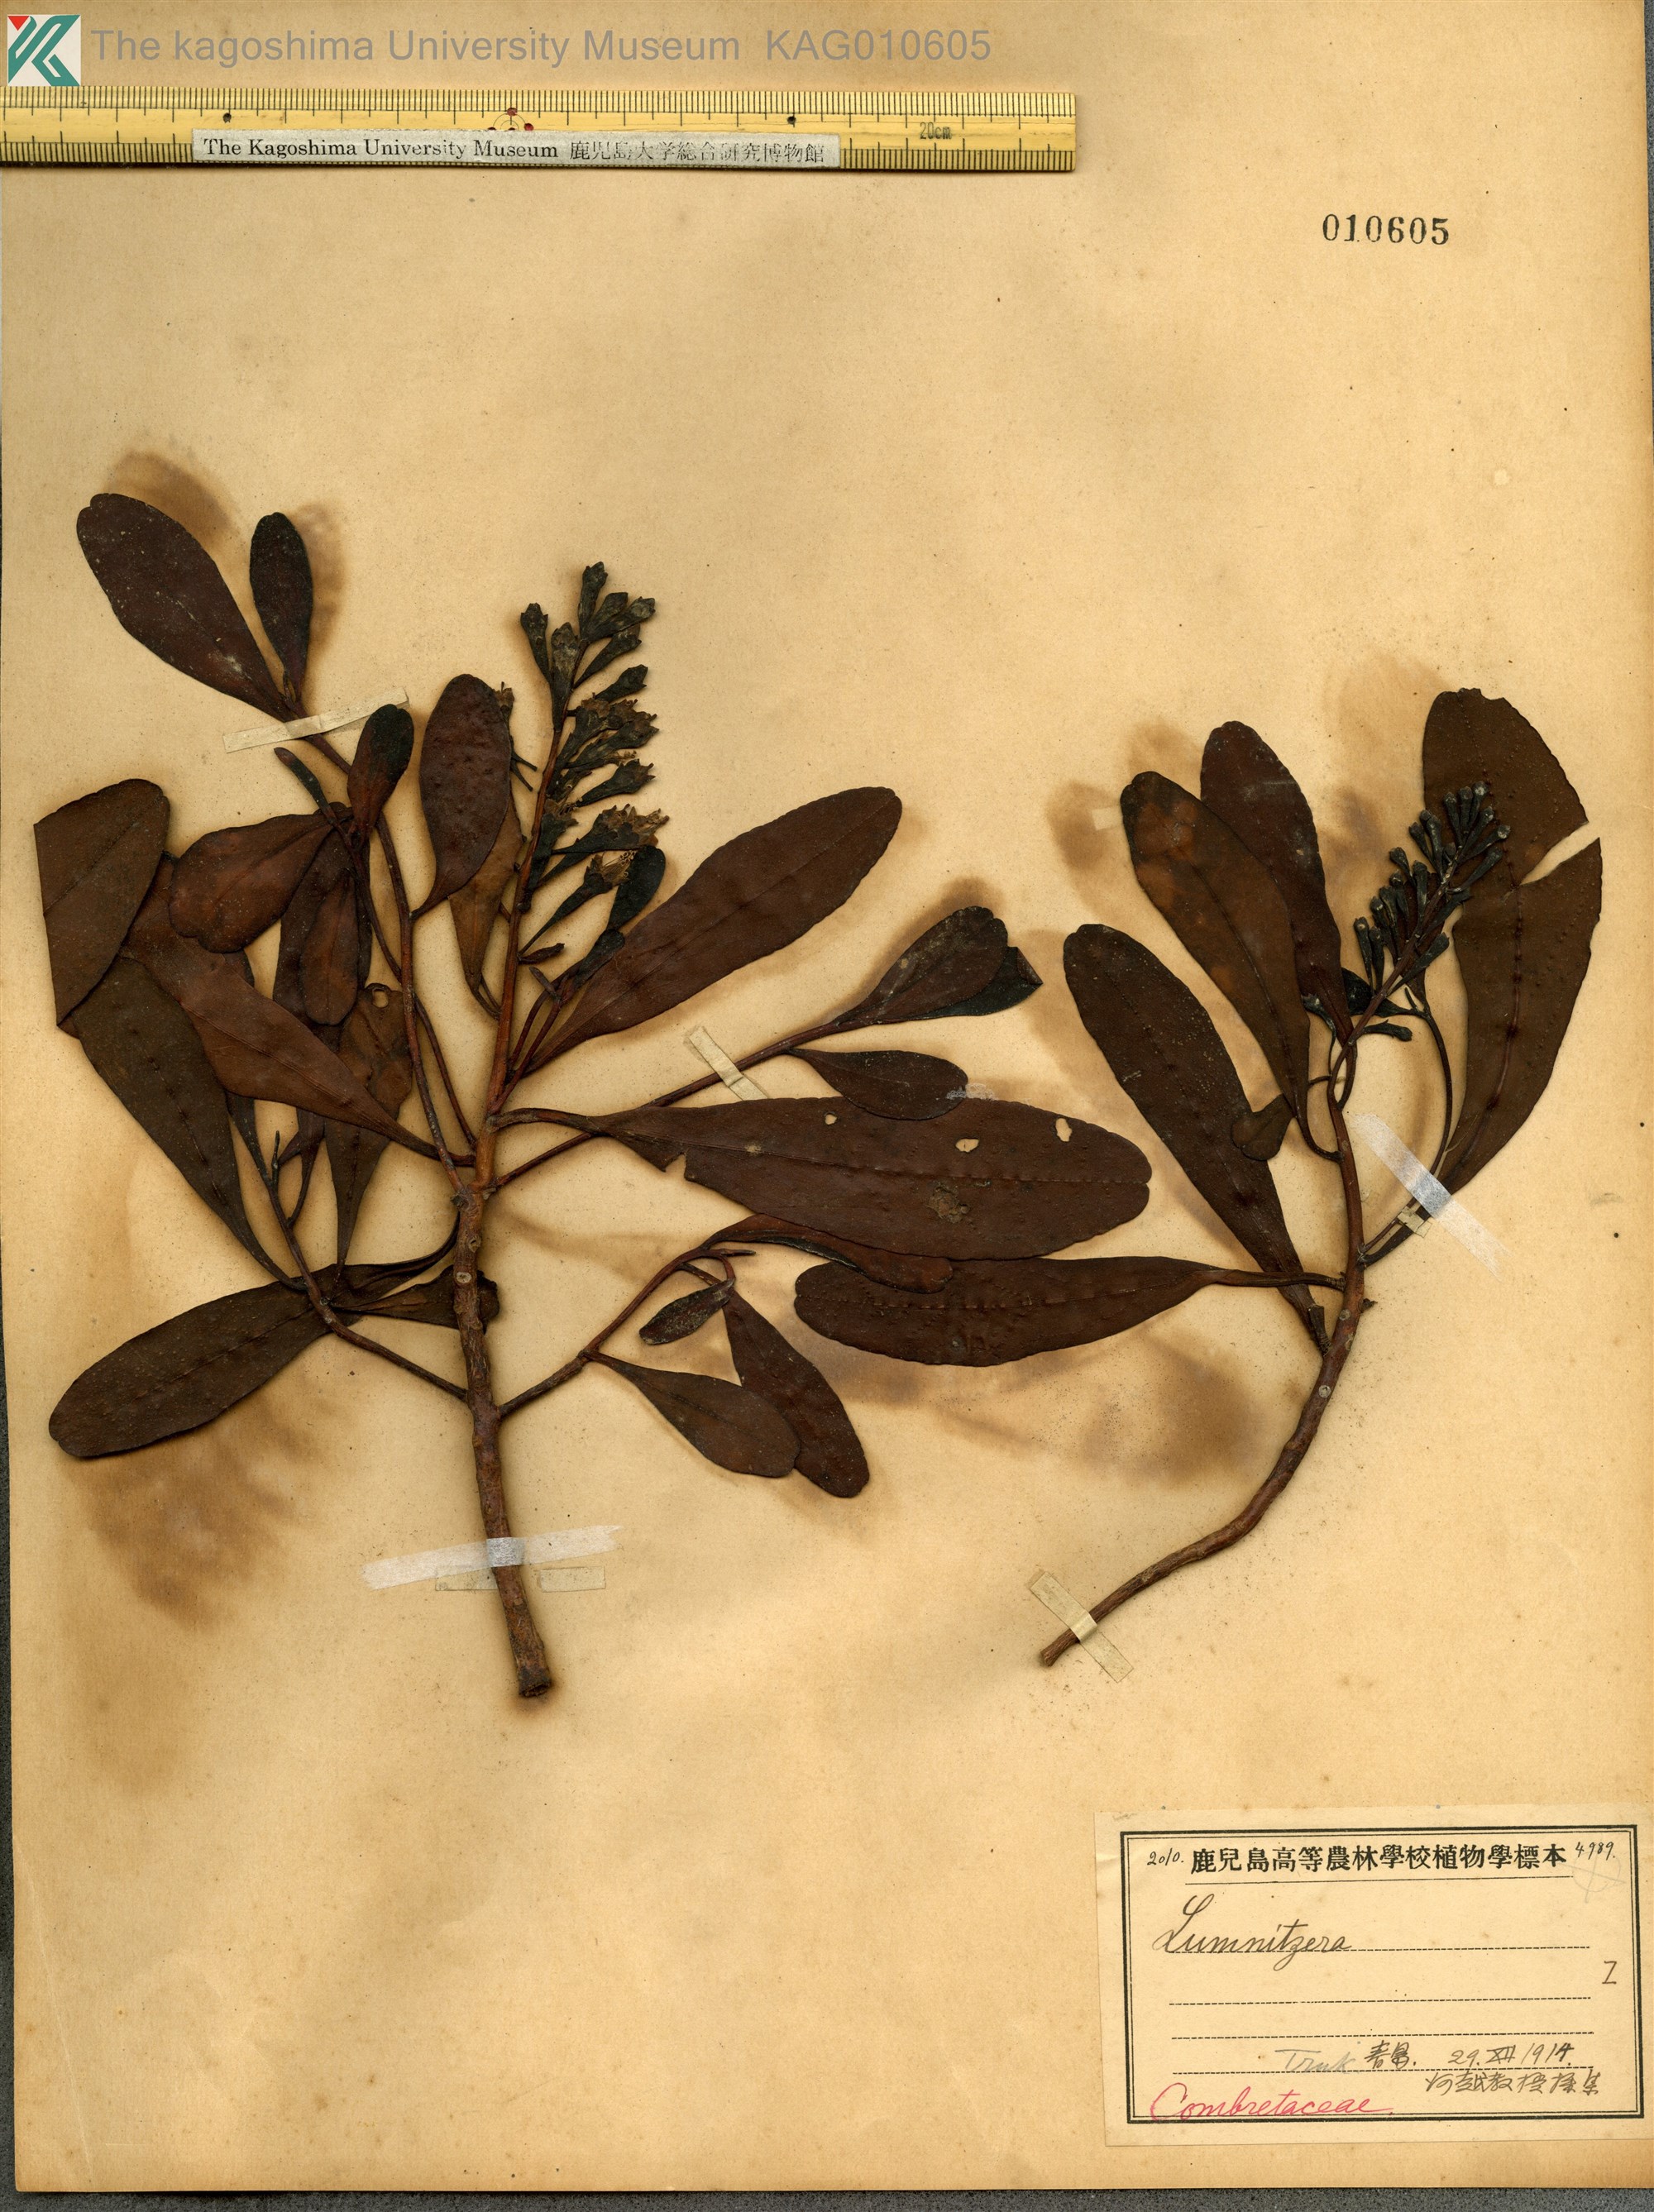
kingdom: Plantae
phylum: Tracheophyta
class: Magnoliopsida
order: Myrtales
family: Combretaceae
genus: Lumnitzera
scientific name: Lumnitzera racemosa
